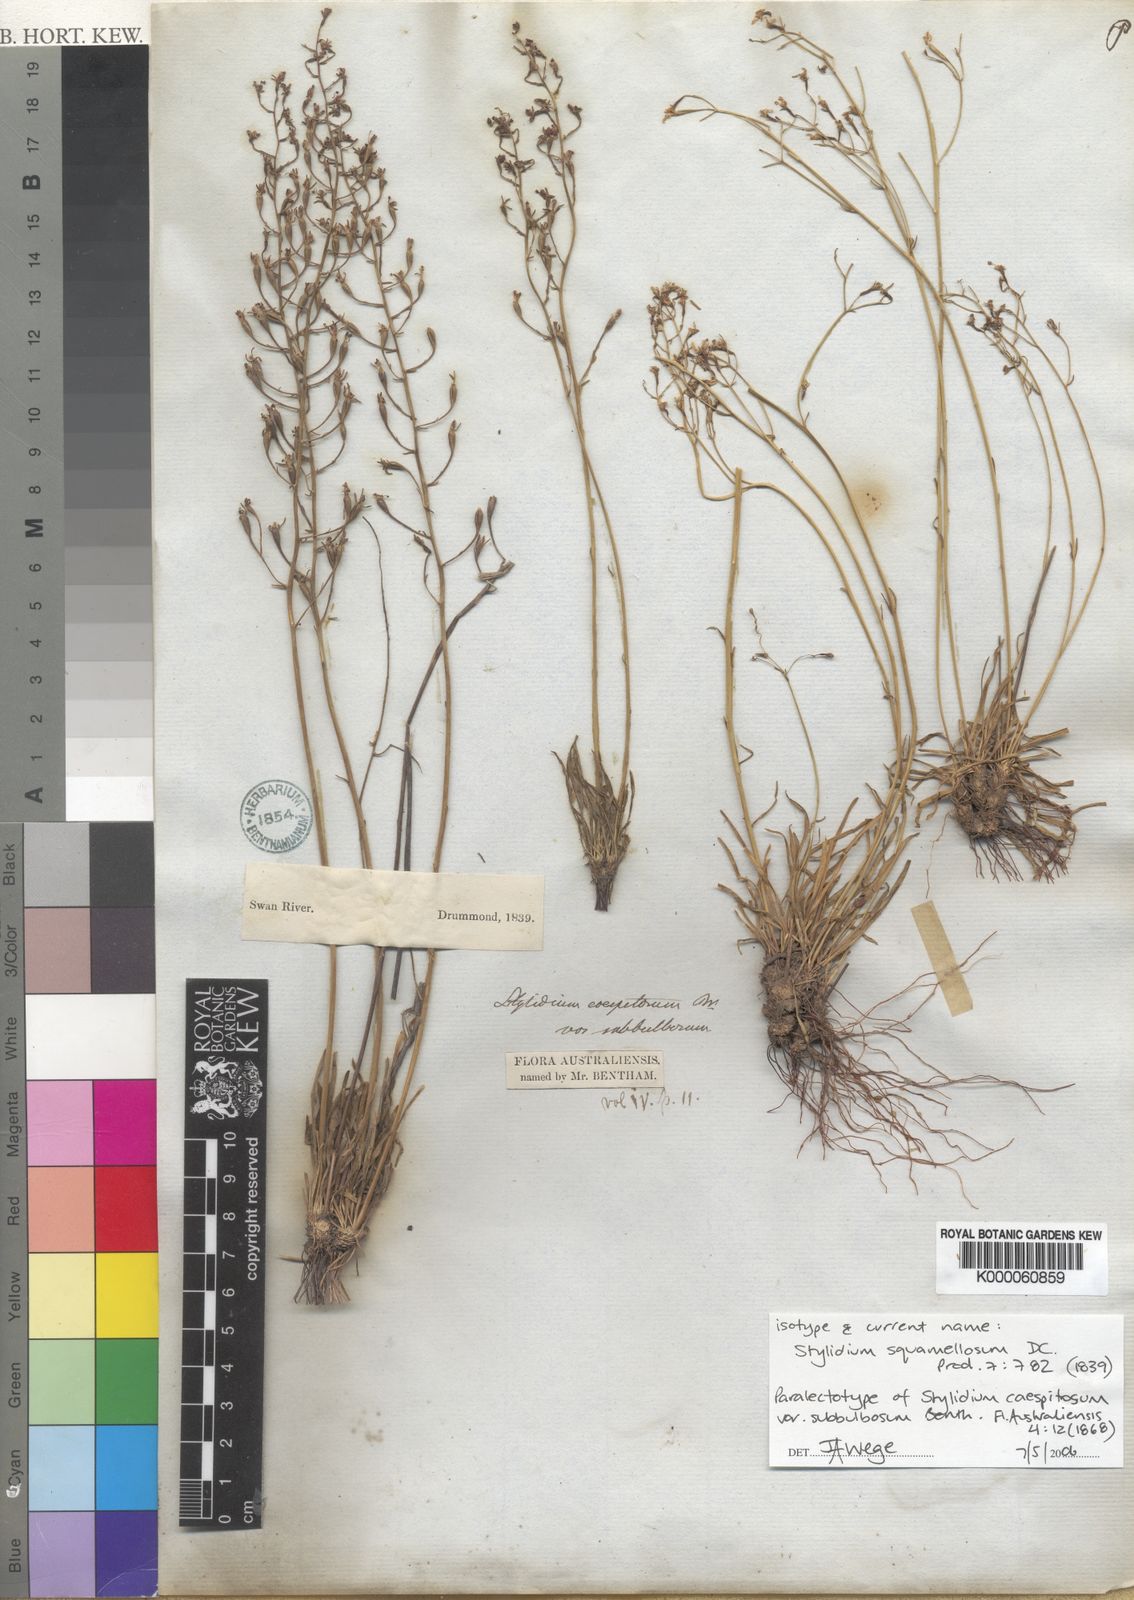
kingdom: Plantae
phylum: Tracheophyta
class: Magnoliopsida
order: Asterales
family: Stylidiaceae
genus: Stylidium
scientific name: Stylidium squamellosum
